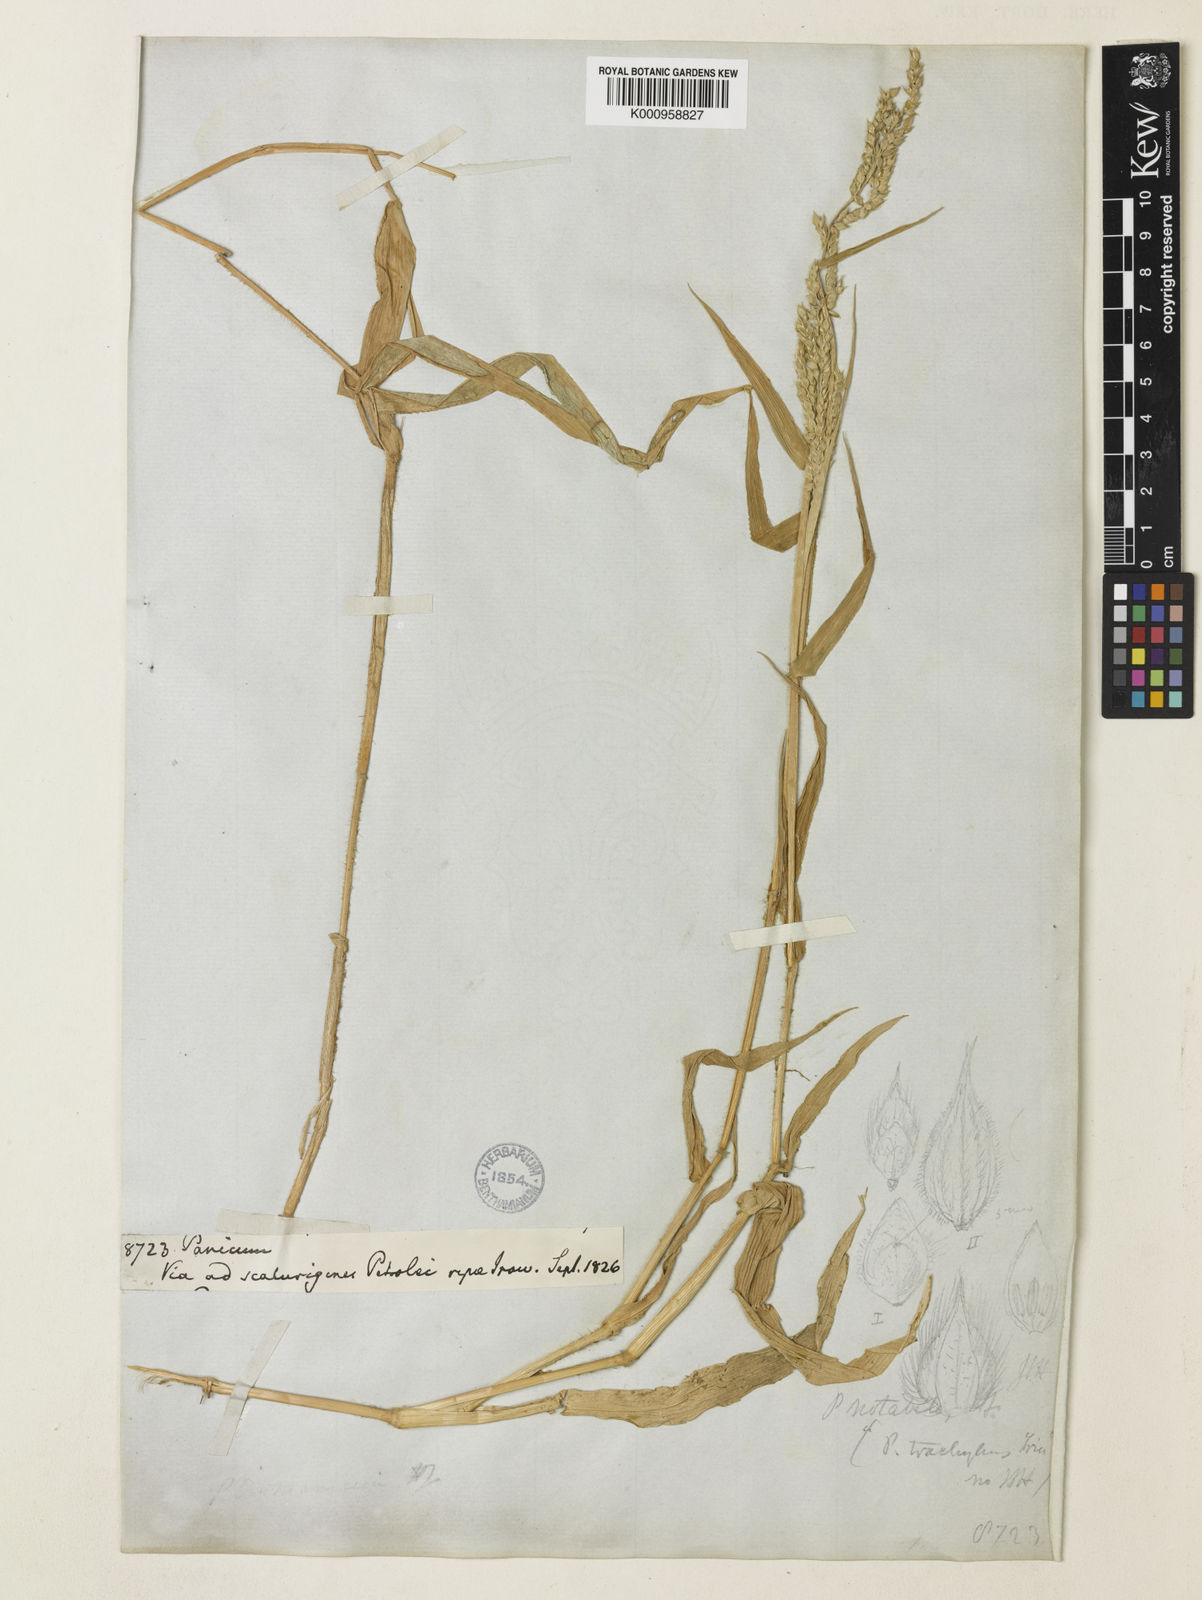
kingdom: Plantae
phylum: Tracheophyta
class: Liliopsida
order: Poales
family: Poaceae
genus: Urochloa
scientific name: Urochloa trichopus
